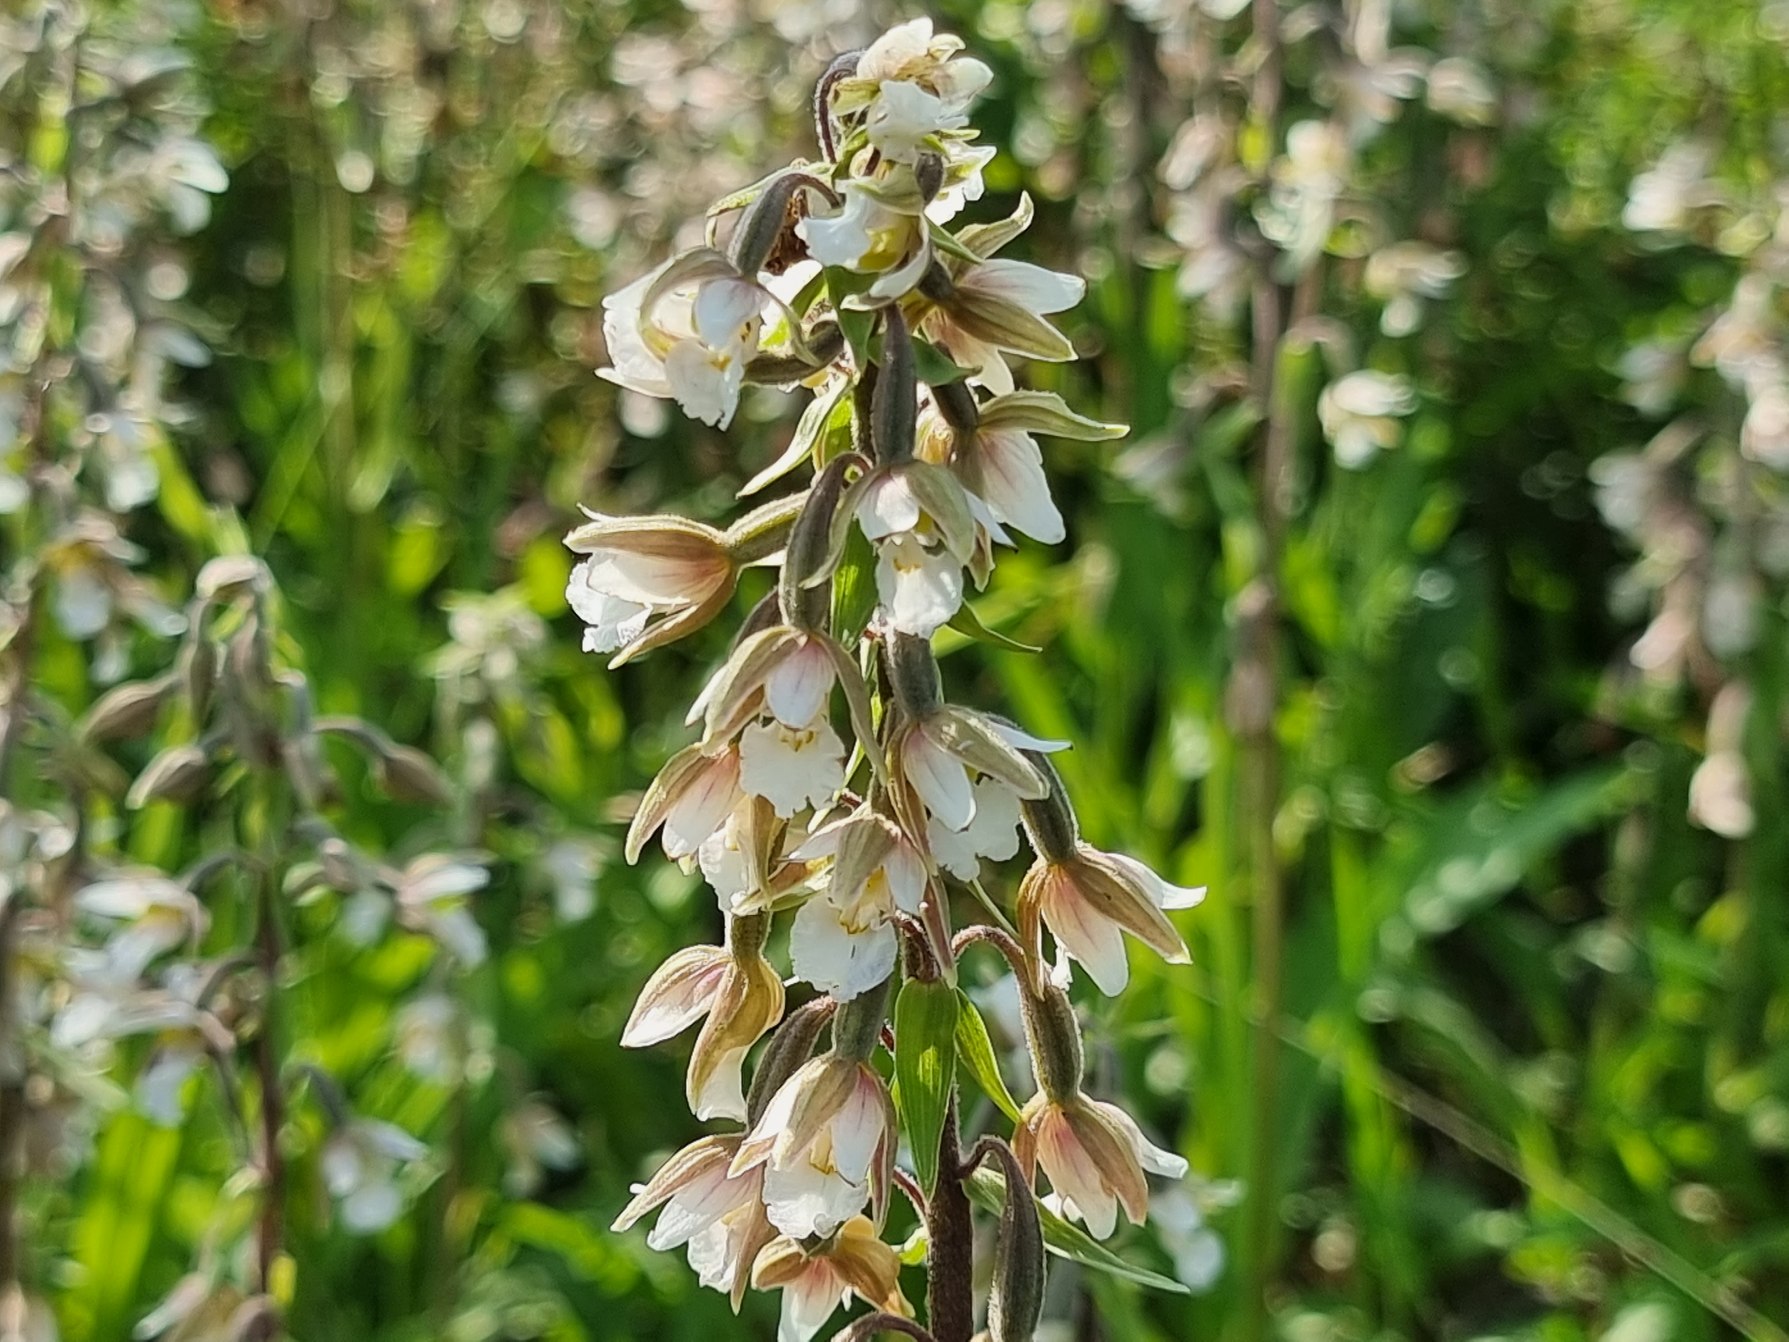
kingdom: Plantae
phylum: Tracheophyta
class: Liliopsida
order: Asparagales
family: Orchidaceae
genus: Epipactis
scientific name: Epipactis palustris
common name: Sump-hullæbe
